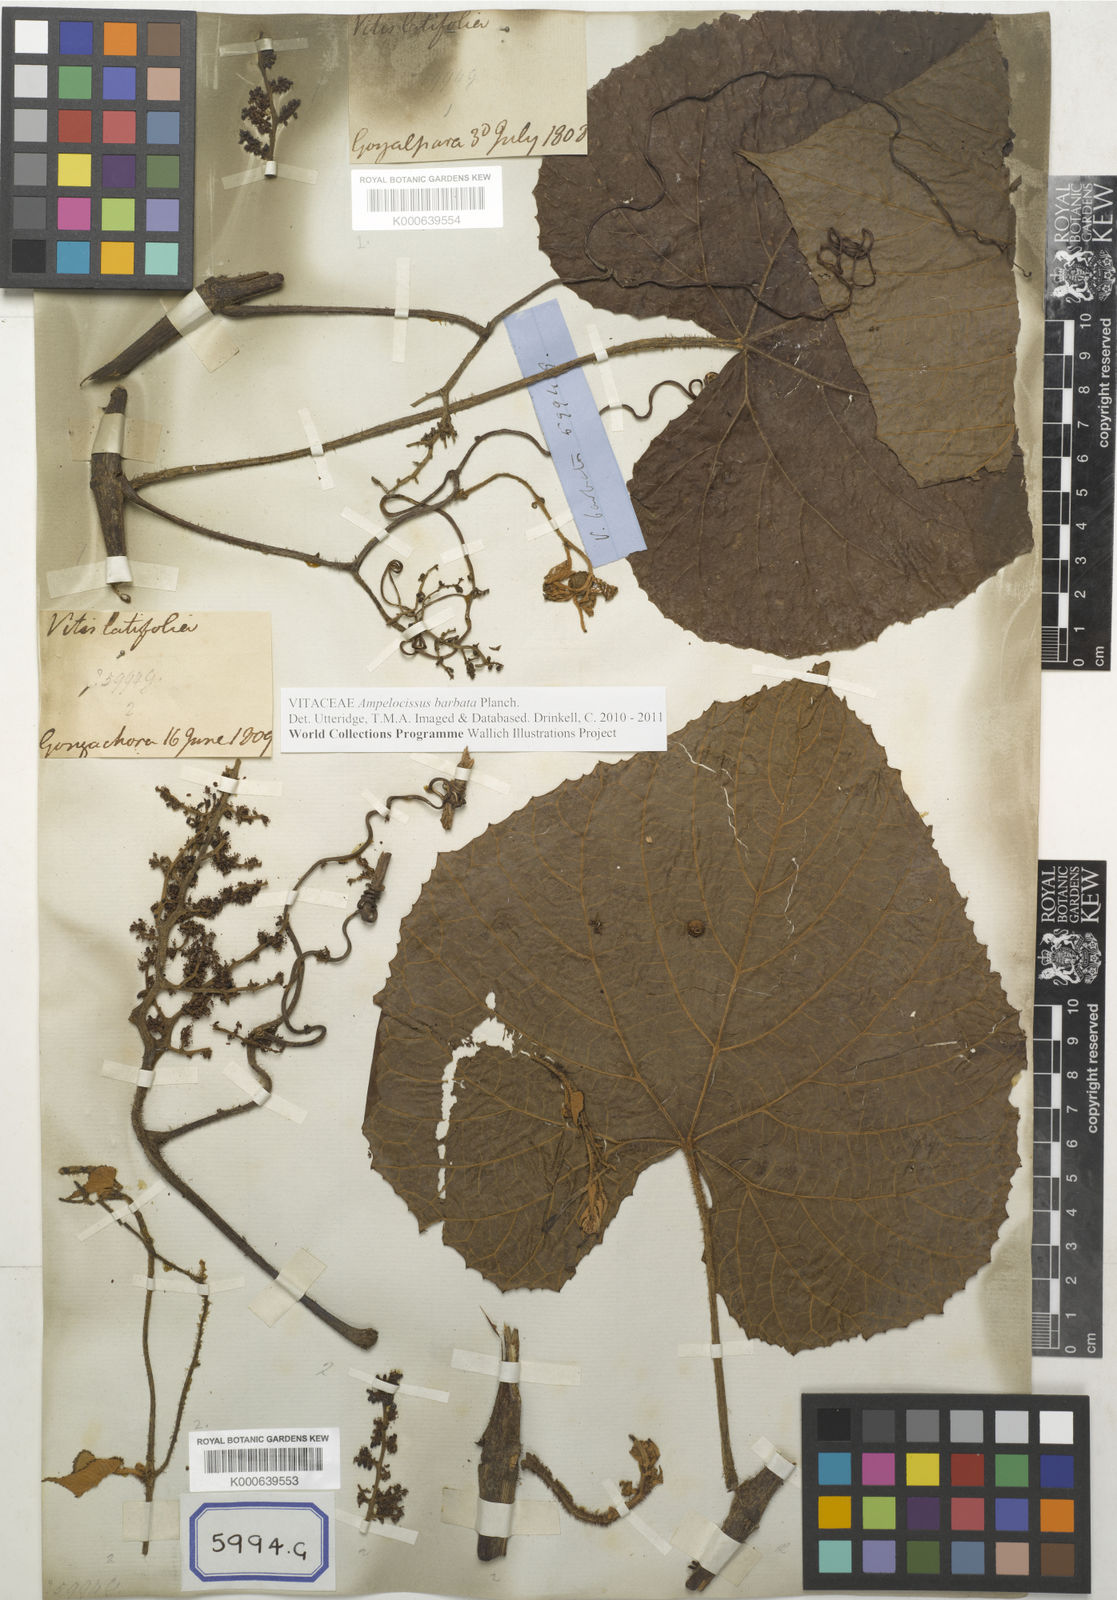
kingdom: Plantae
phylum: Tracheophyta
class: Magnoliopsida
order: Vitales
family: Vitaceae
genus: Ampelocissus
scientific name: Ampelocissus latifolia
